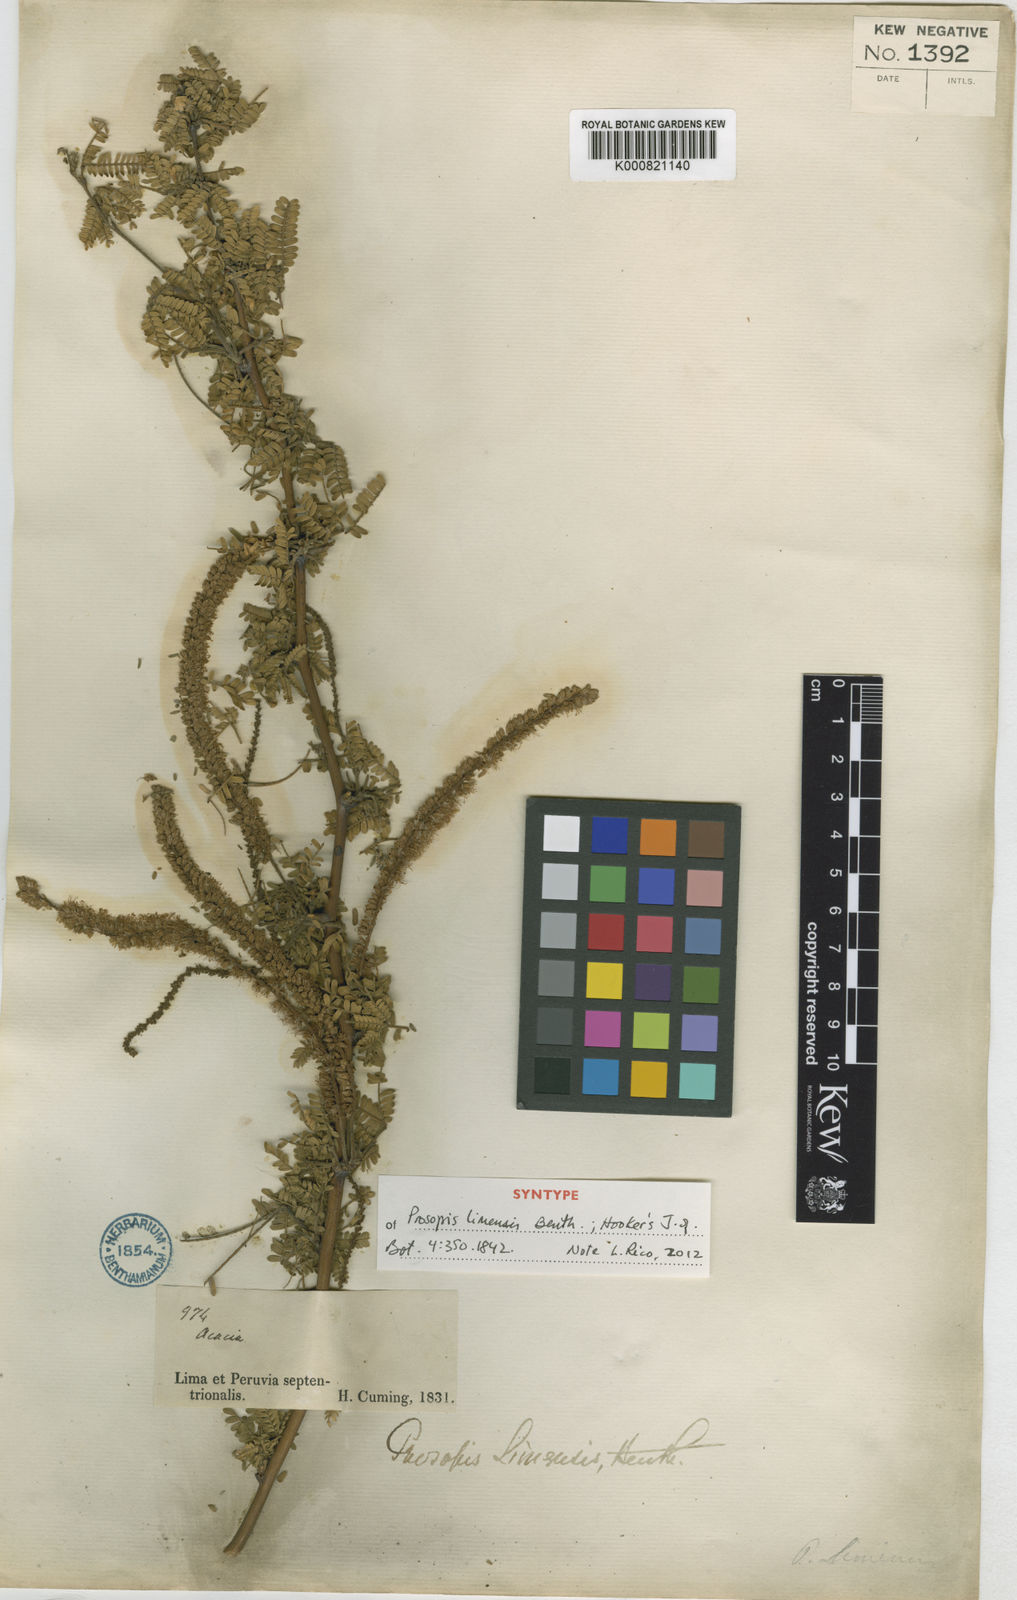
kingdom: Plantae
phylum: Tracheophyta
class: Magnoliopsida
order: Fabales
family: Fabaceae
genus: Prosopis
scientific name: Prosopis limensis
